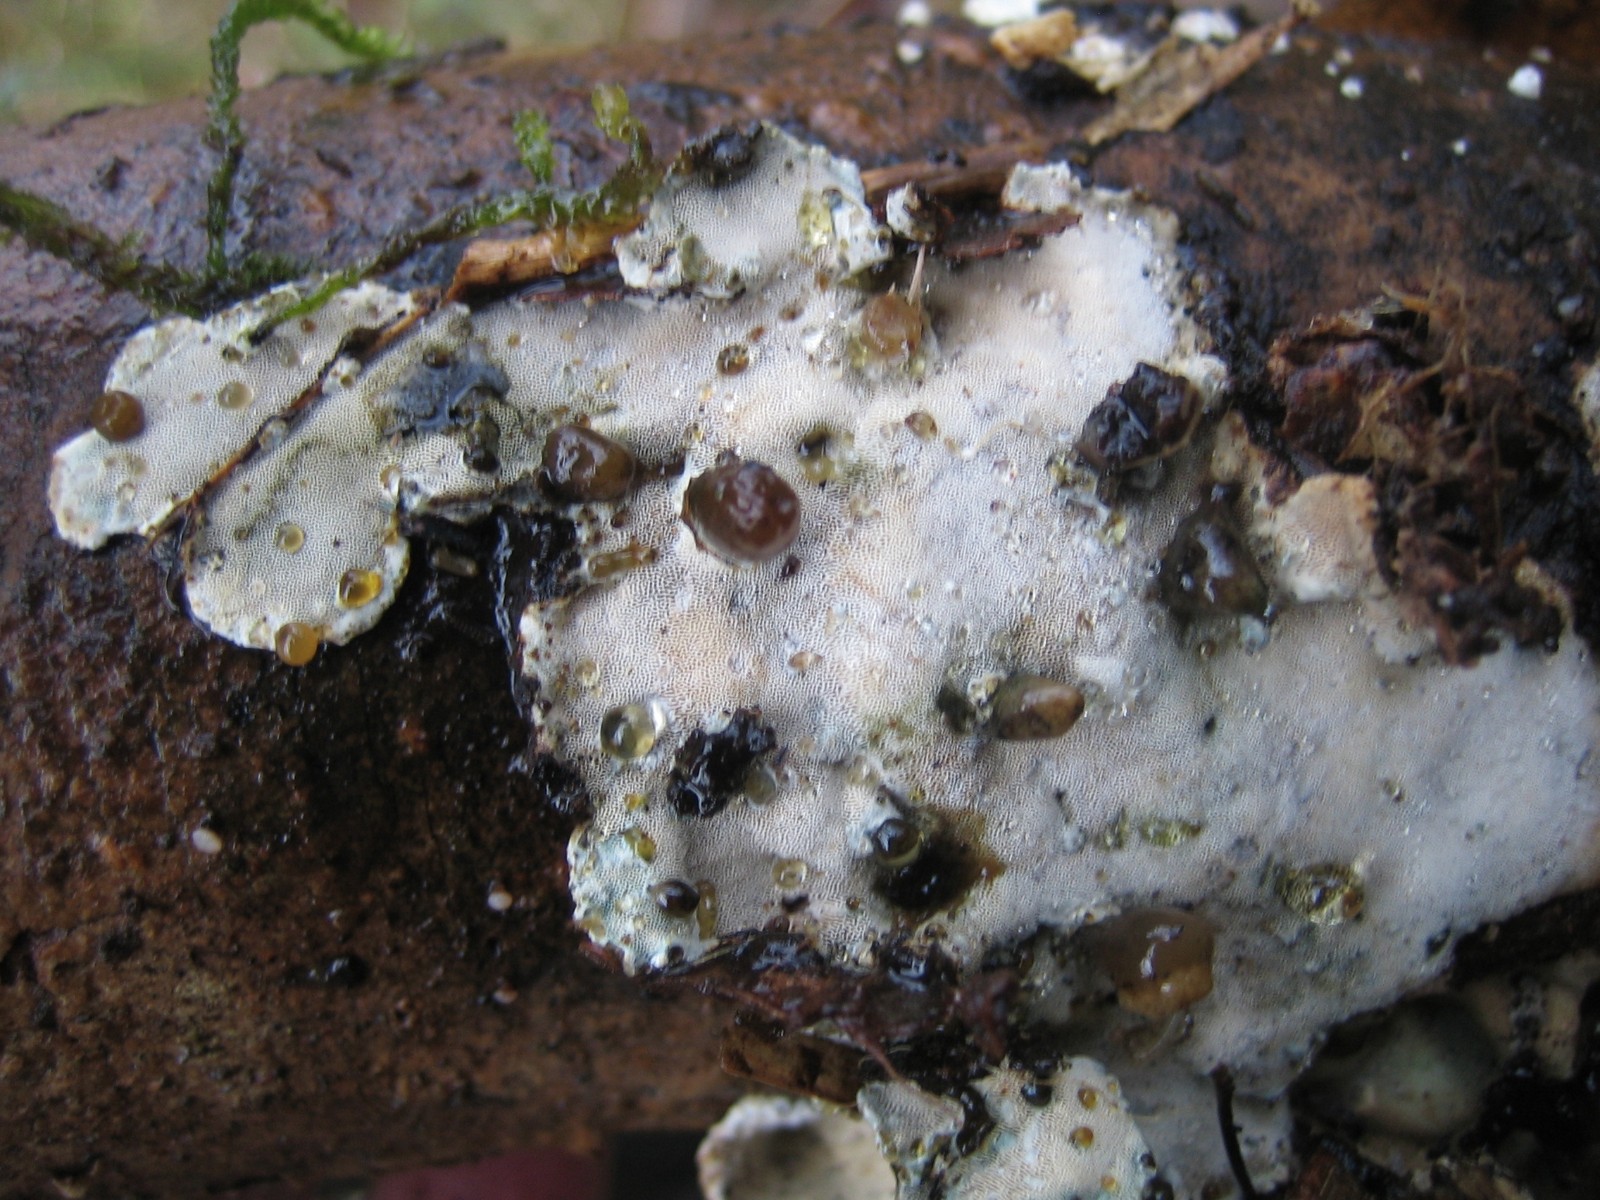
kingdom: Fungi
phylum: Basidiomycota
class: Agaricomycetes
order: Polyporales
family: Incrustoporiaceae
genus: Skeletocutis
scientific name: Skeletocutis nemoralis
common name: stor krystalporesvamp
